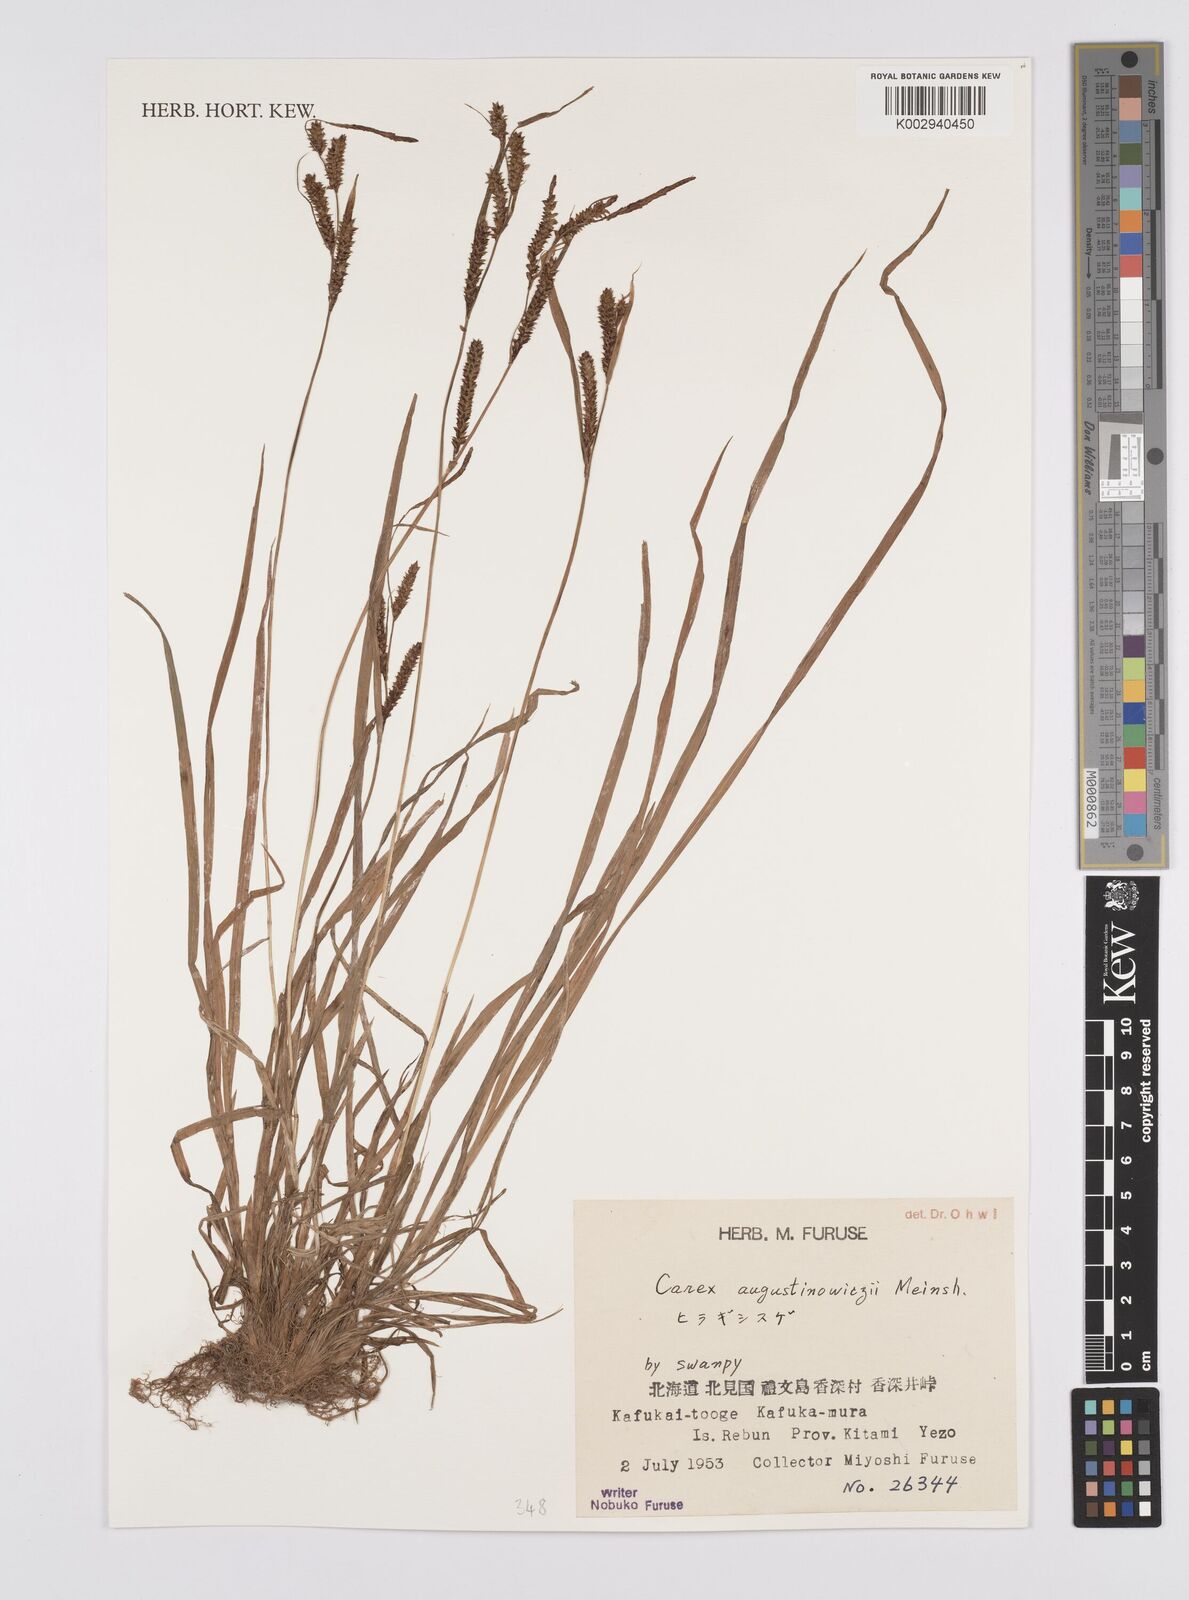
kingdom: Plantae
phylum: Tracheophyta
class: Liliopsida
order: Poales
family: Cyperaceae
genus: Carex
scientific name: Carex augustinowiczii
